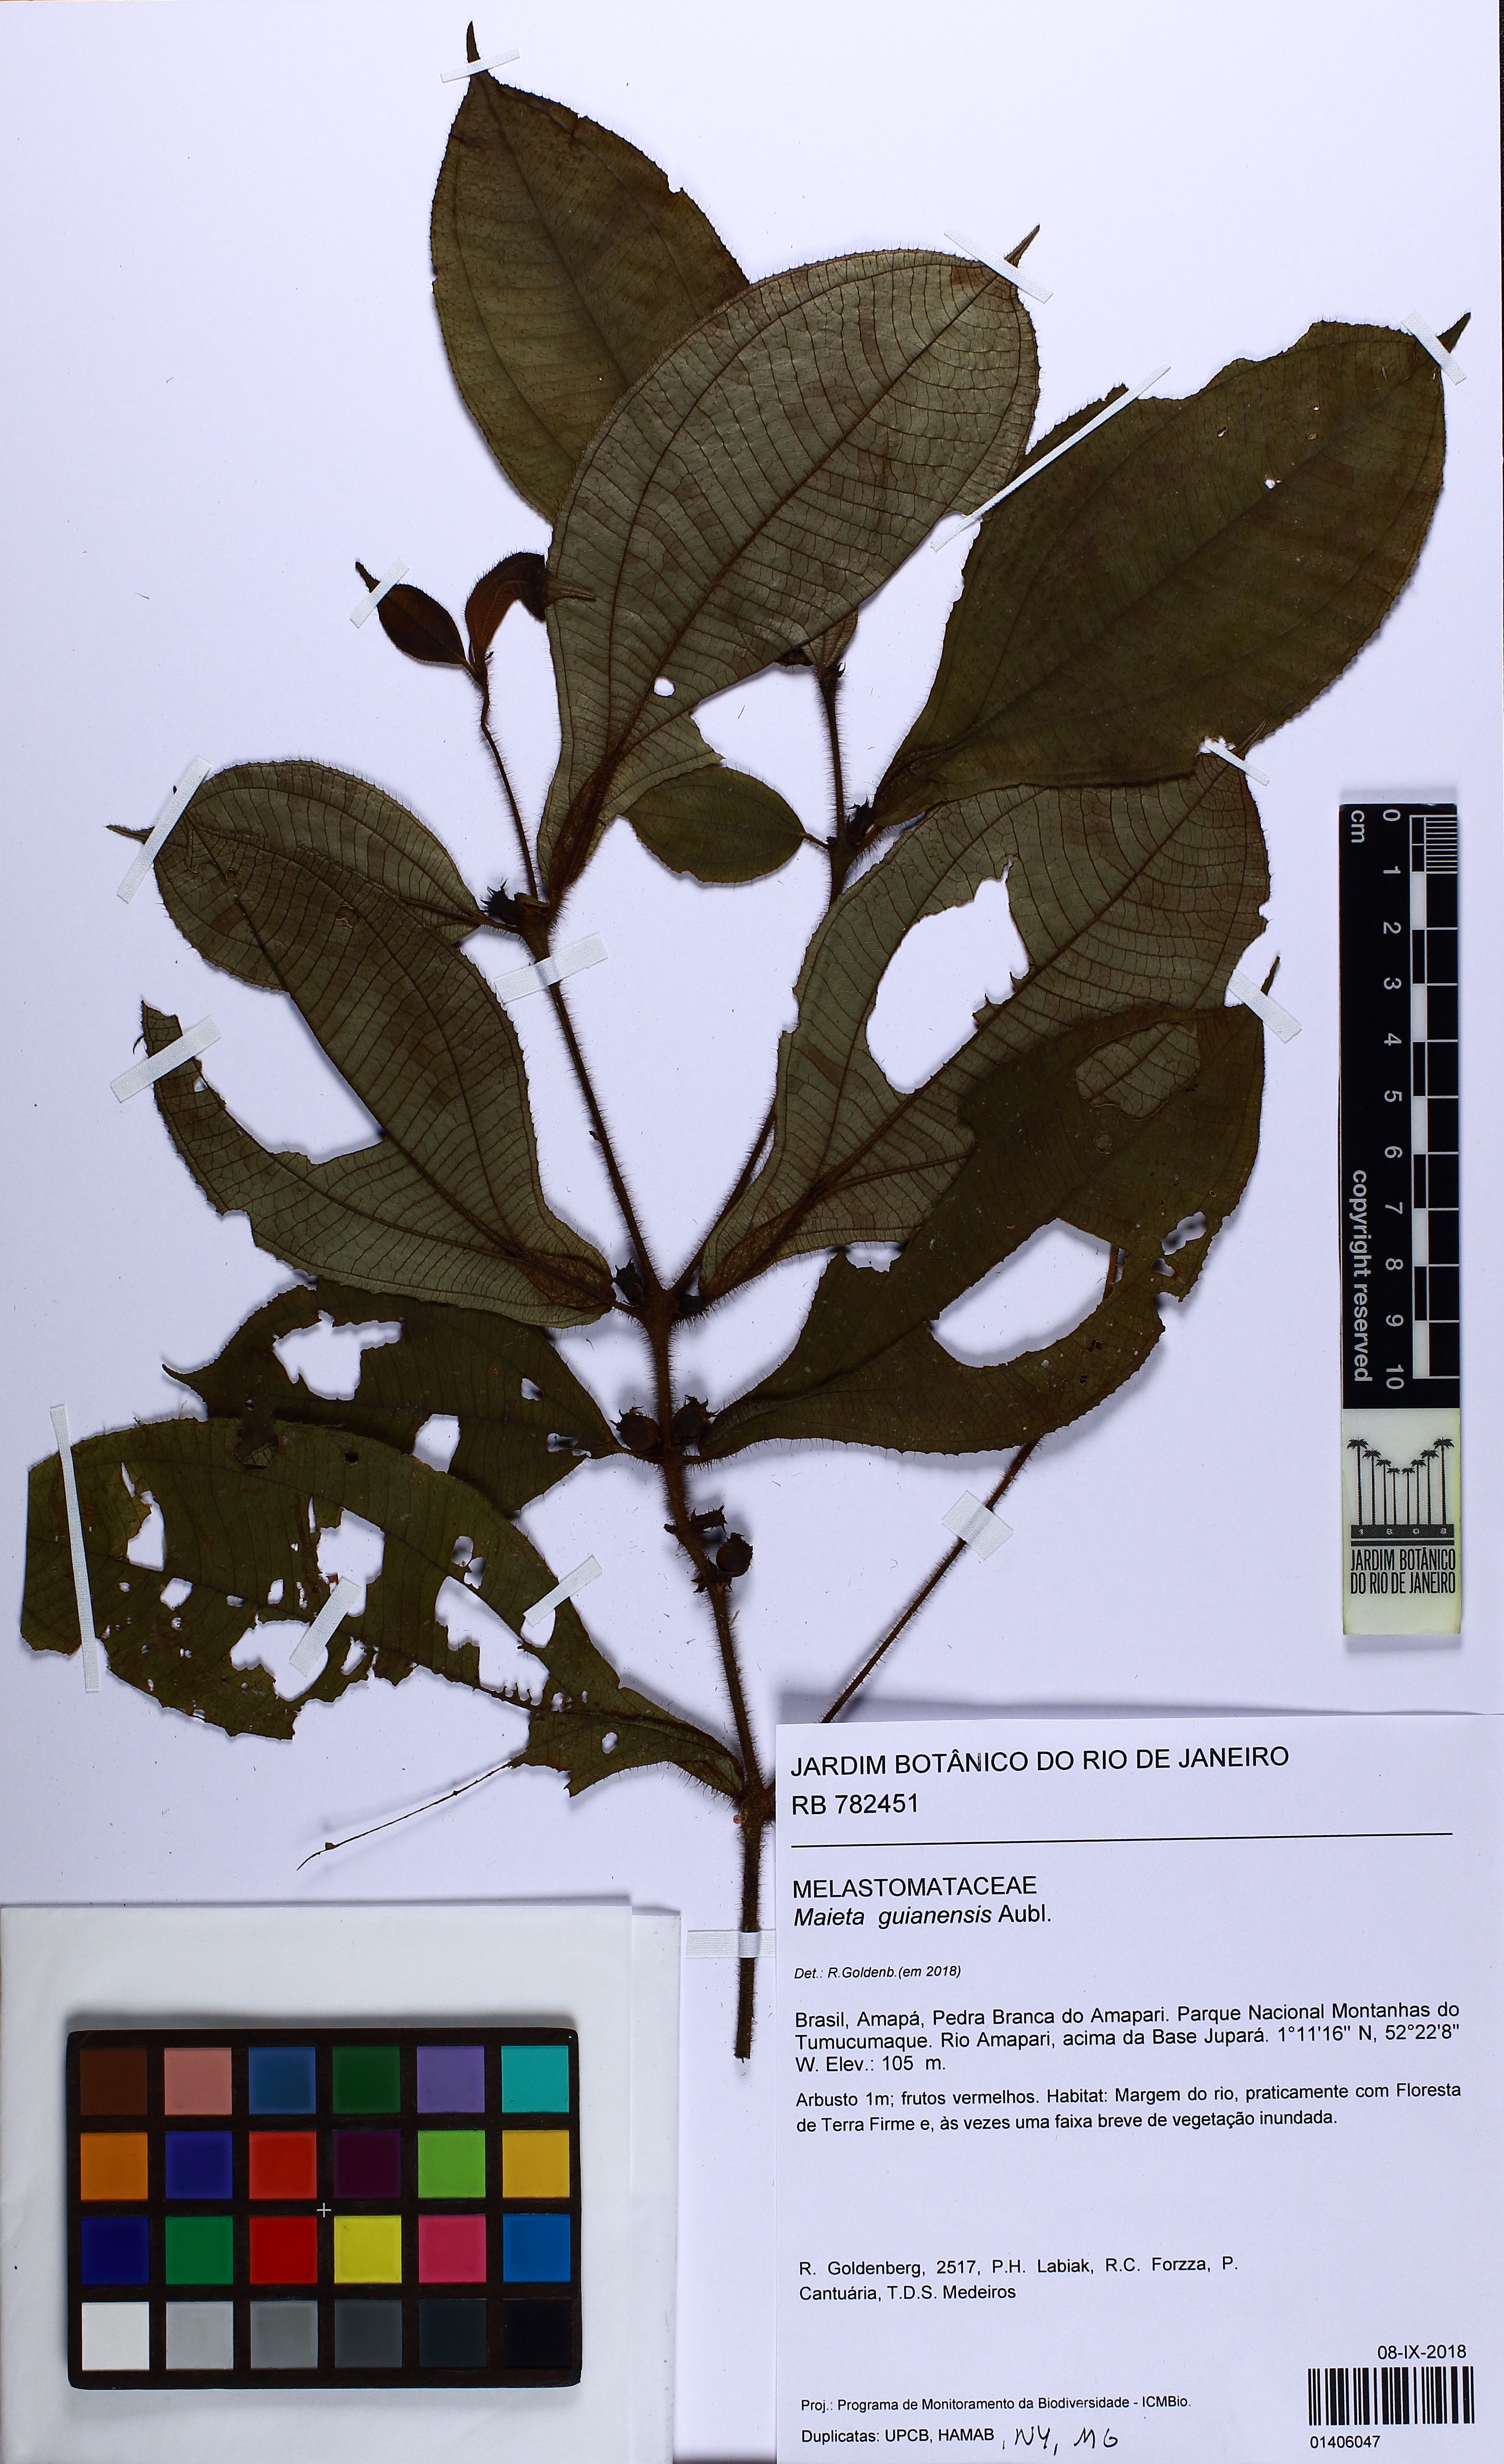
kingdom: Plantae
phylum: Tracheophyta
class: Magnoliopsida
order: Myrtales
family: Melastomataceae
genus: Miconia
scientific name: Miconia mayeta
